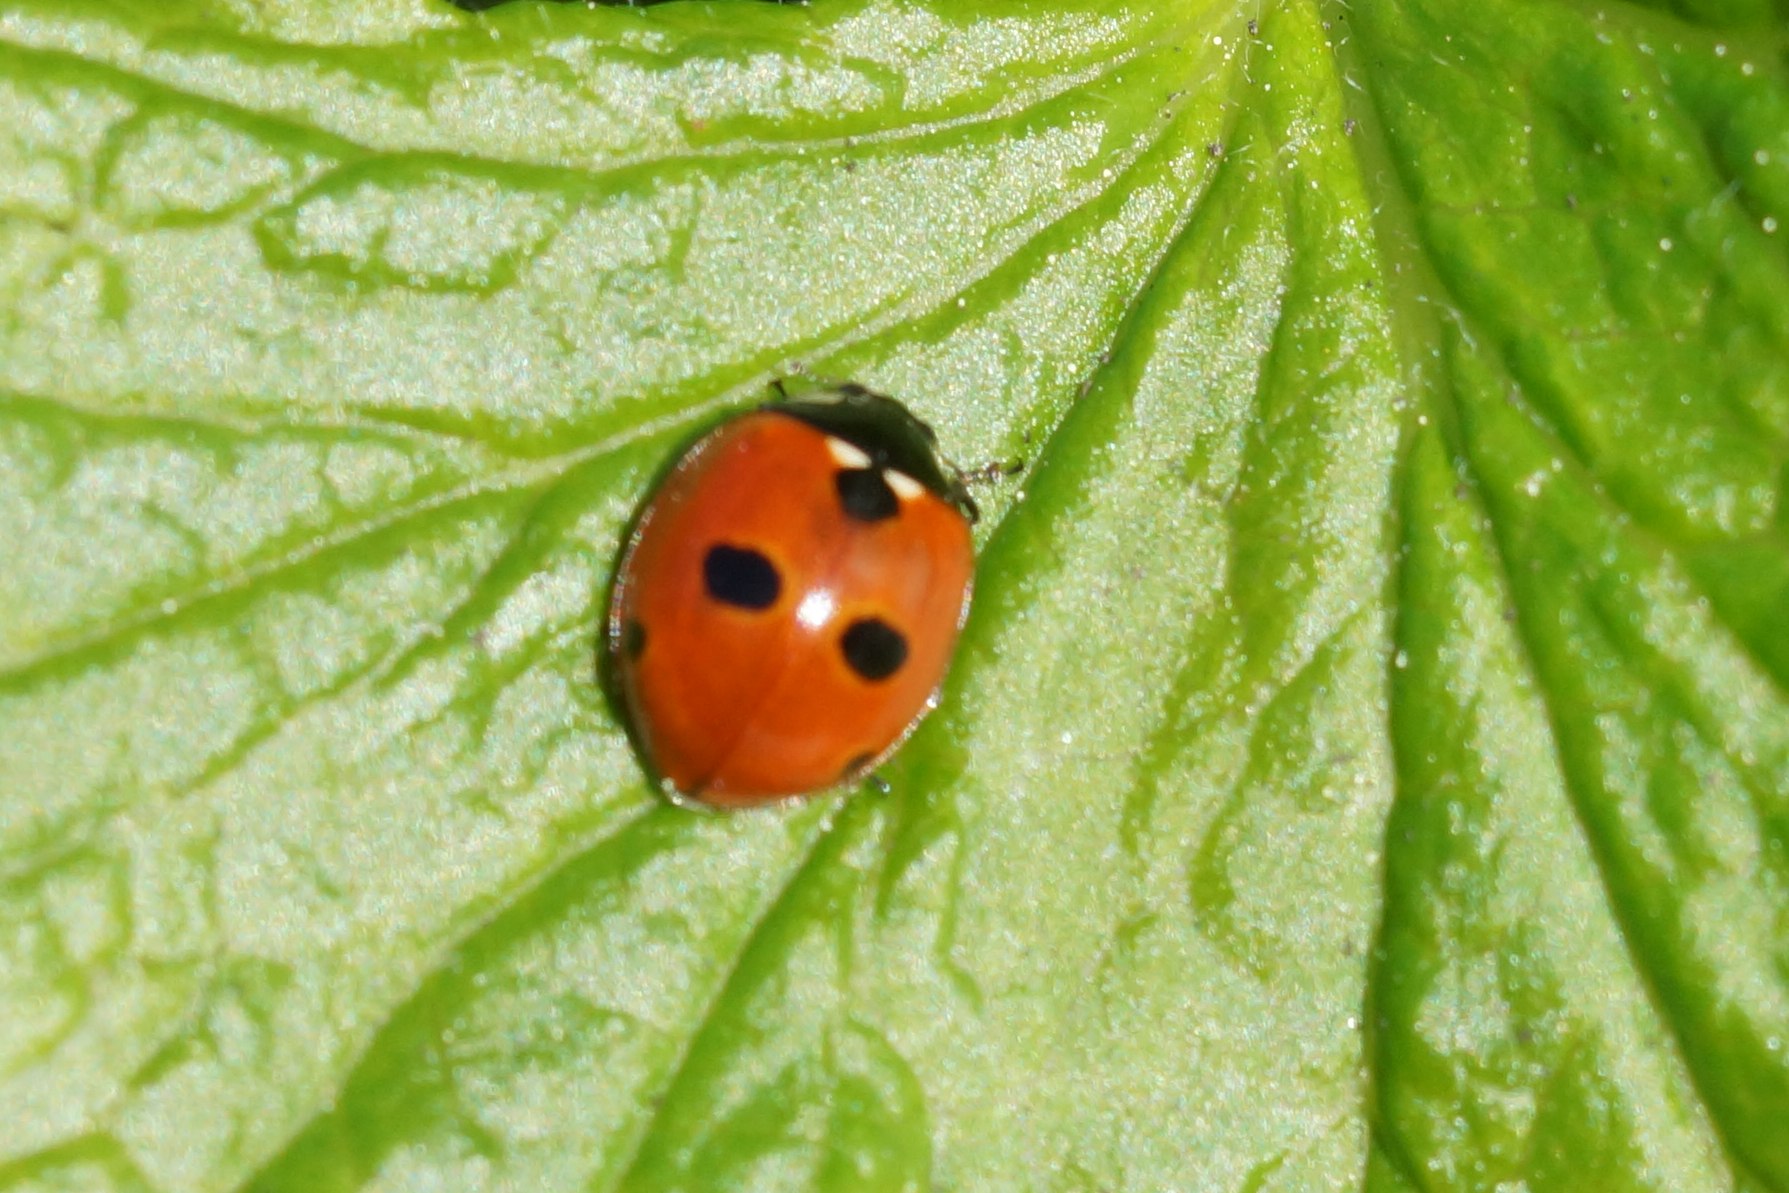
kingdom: Animalia
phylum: Arthropoda
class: Insecta
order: Coleoptera
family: Coccinellidae
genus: Coccinella
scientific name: Coccinella quinquepunctata
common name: Femplettet mariehøne
